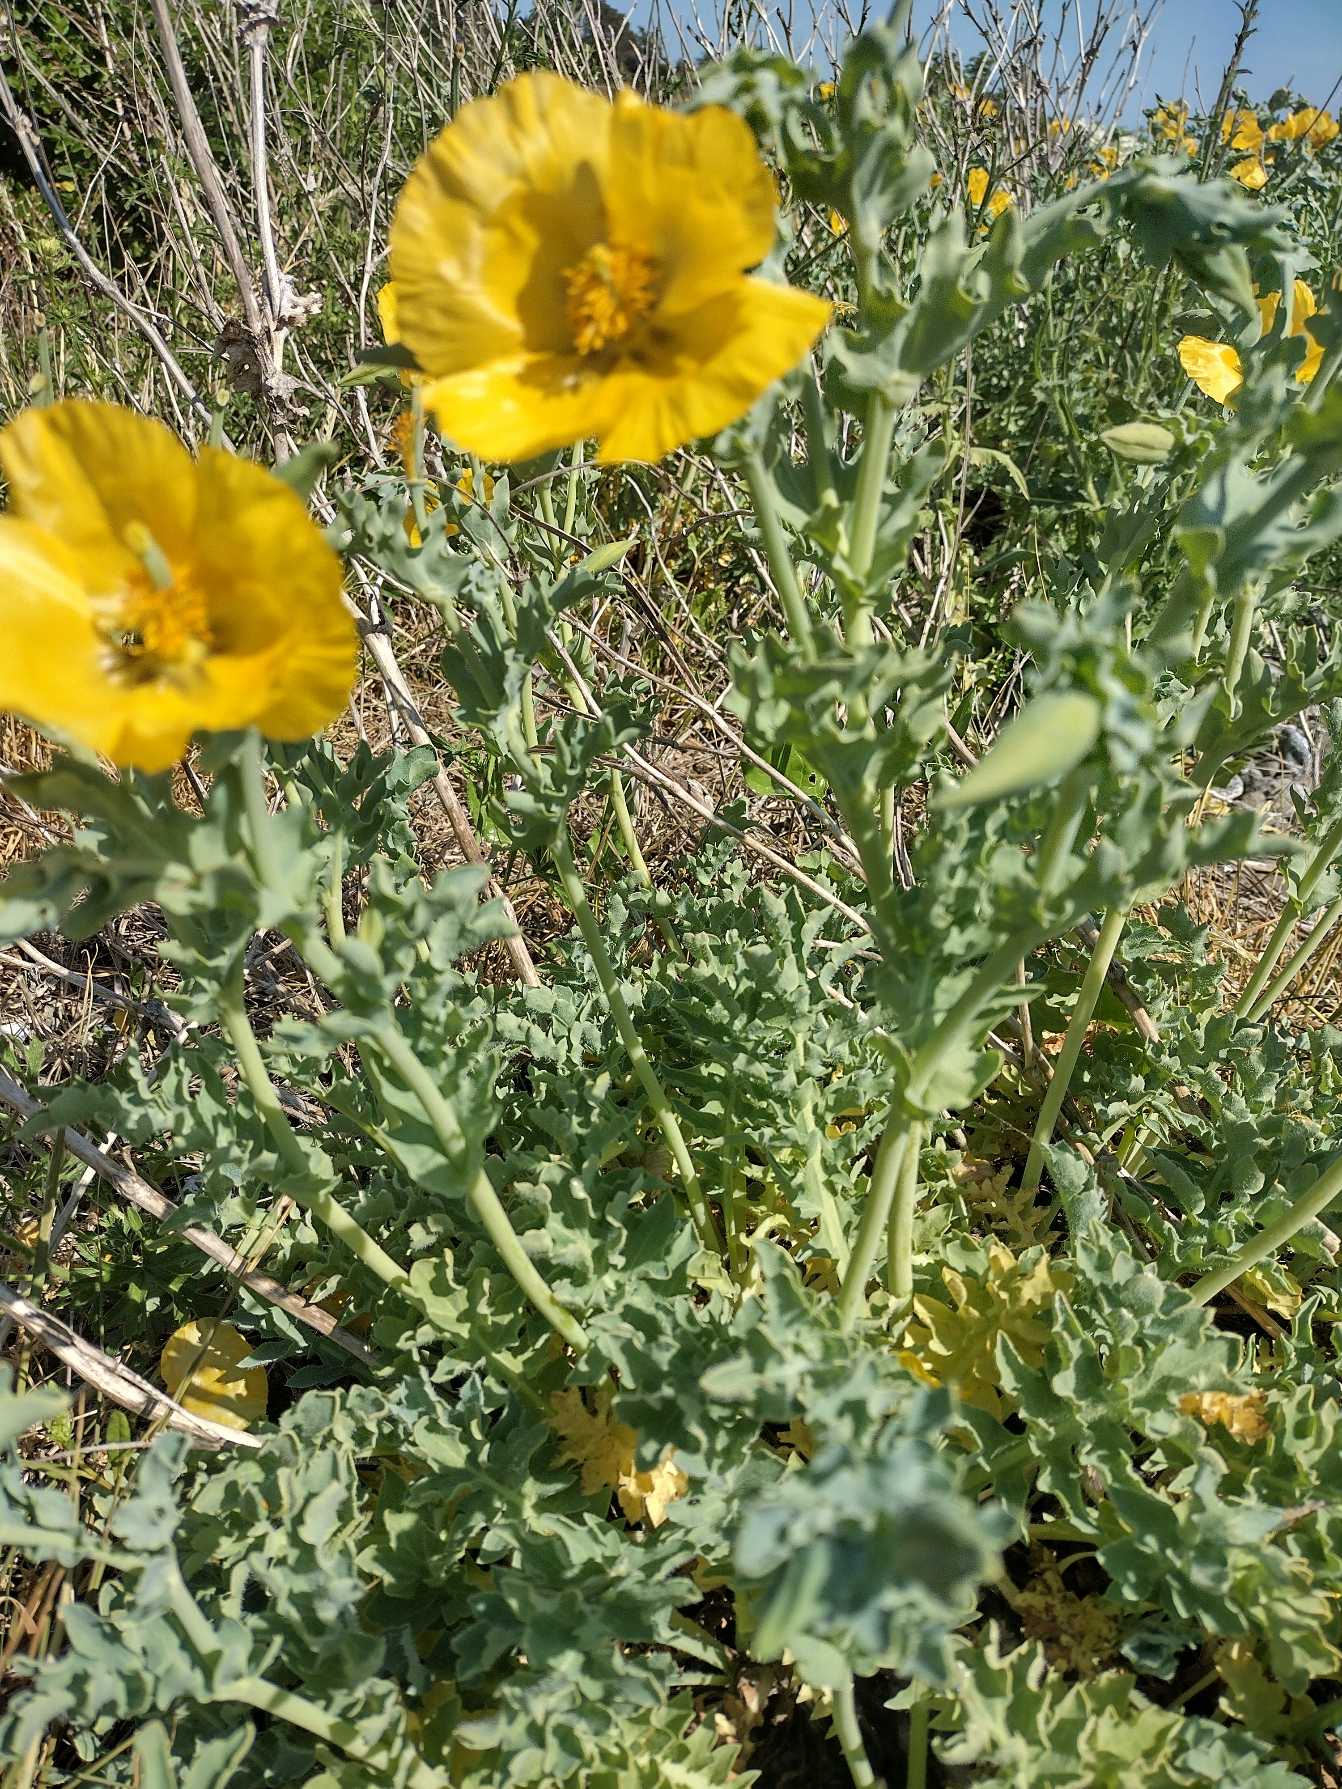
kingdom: Plantae
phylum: Tracheophyta
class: Magnoliopsida
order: Ranunculales
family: Papaveraceae
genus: Glaucium
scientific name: Glaucium flavum
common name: Hornskulpe
